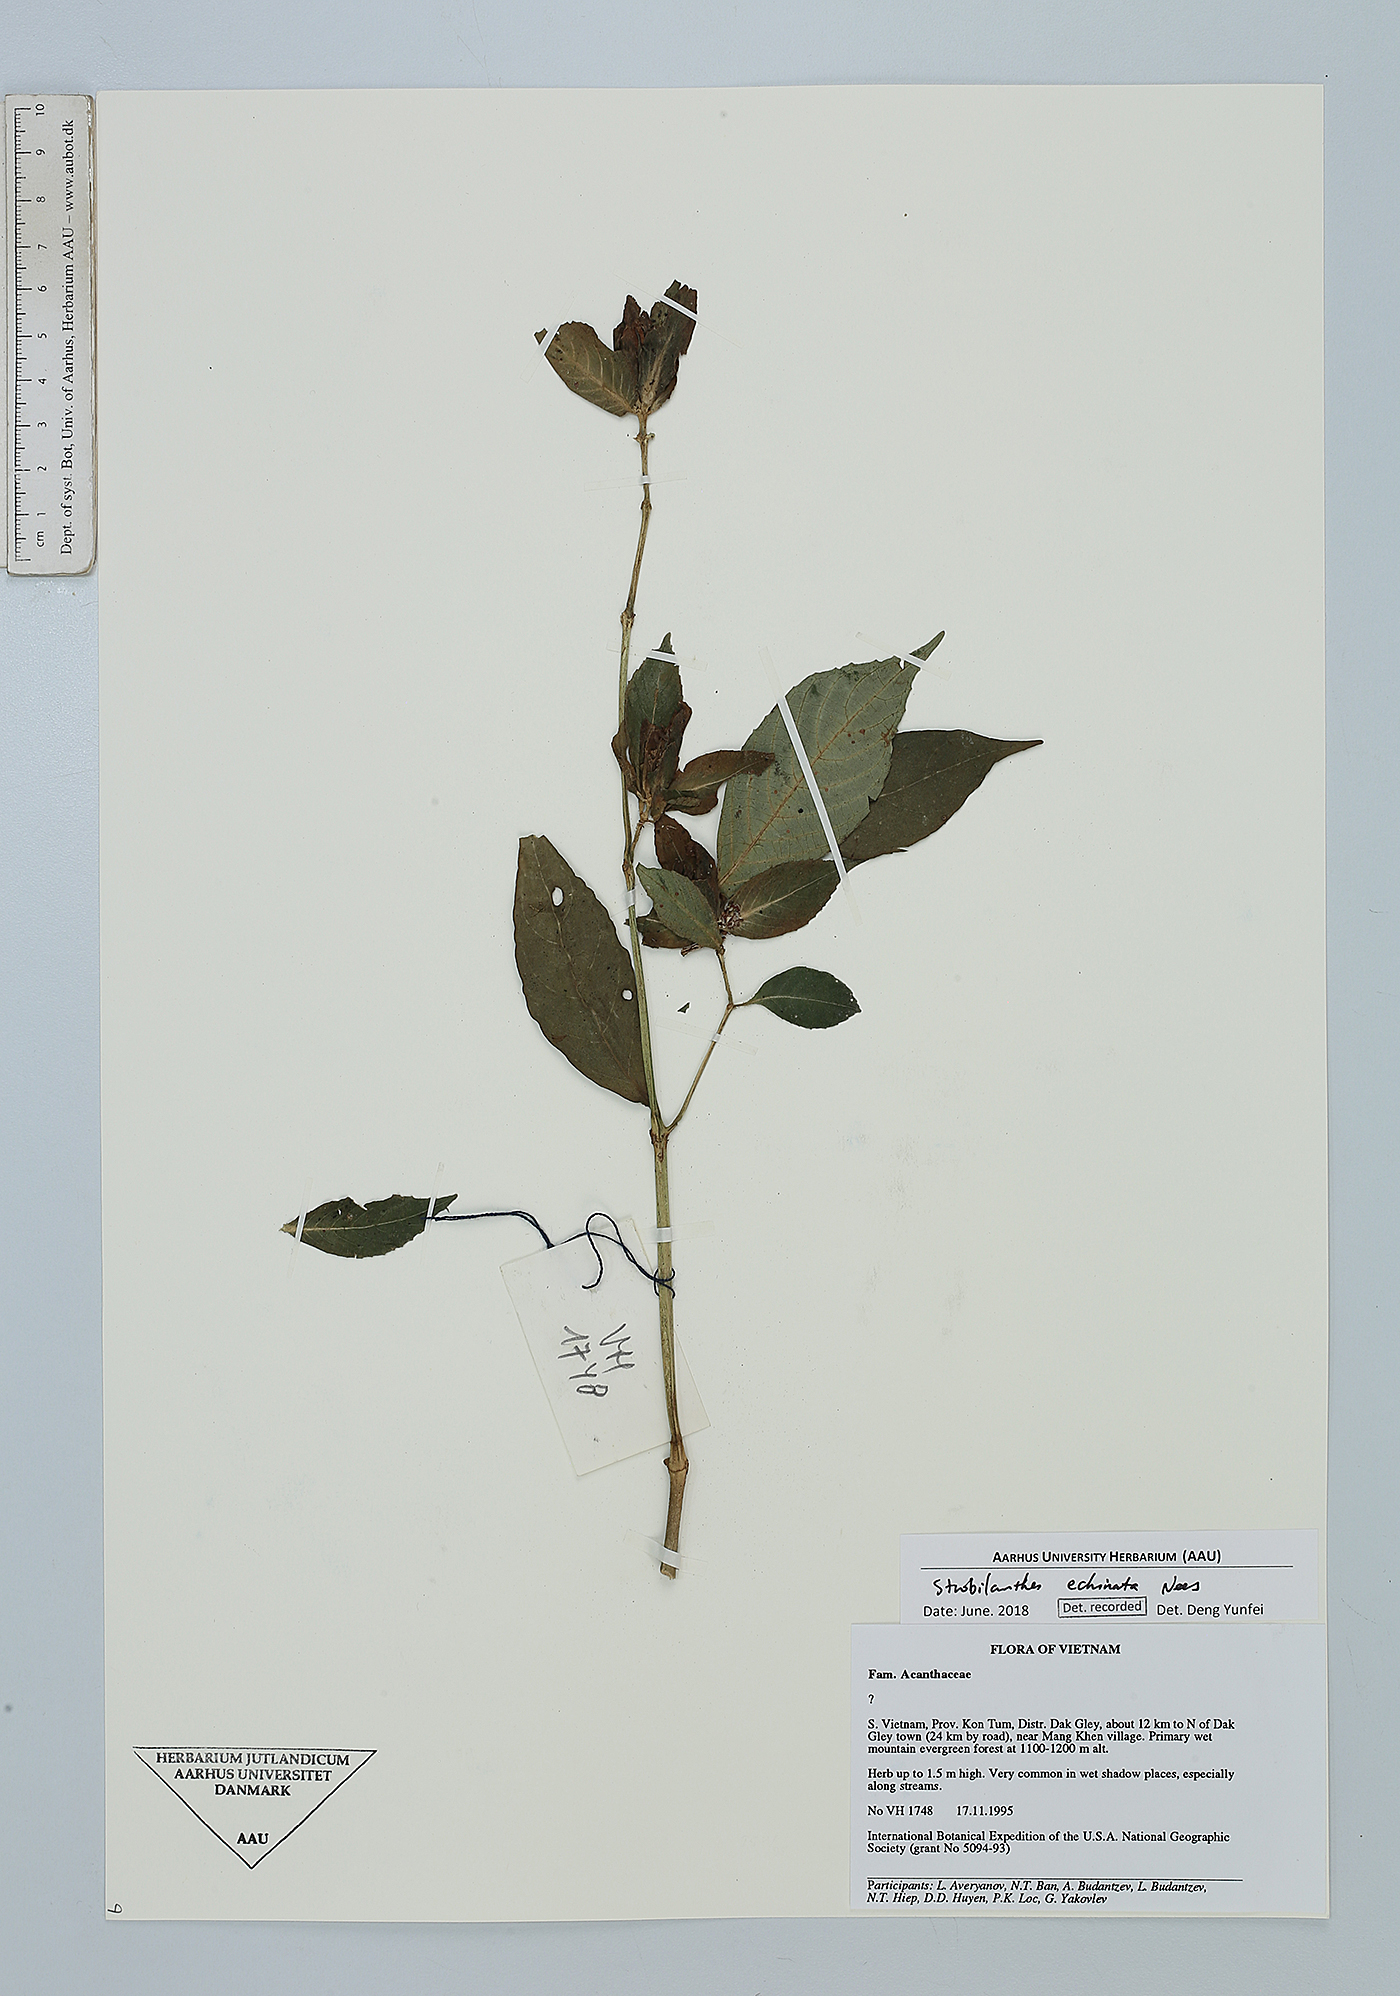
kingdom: Plantae
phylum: Tracheophyta
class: Magnoliopsida
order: Lamiales
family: Acanthaceae
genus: Strobilanthes
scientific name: Strobilanthes echinata
